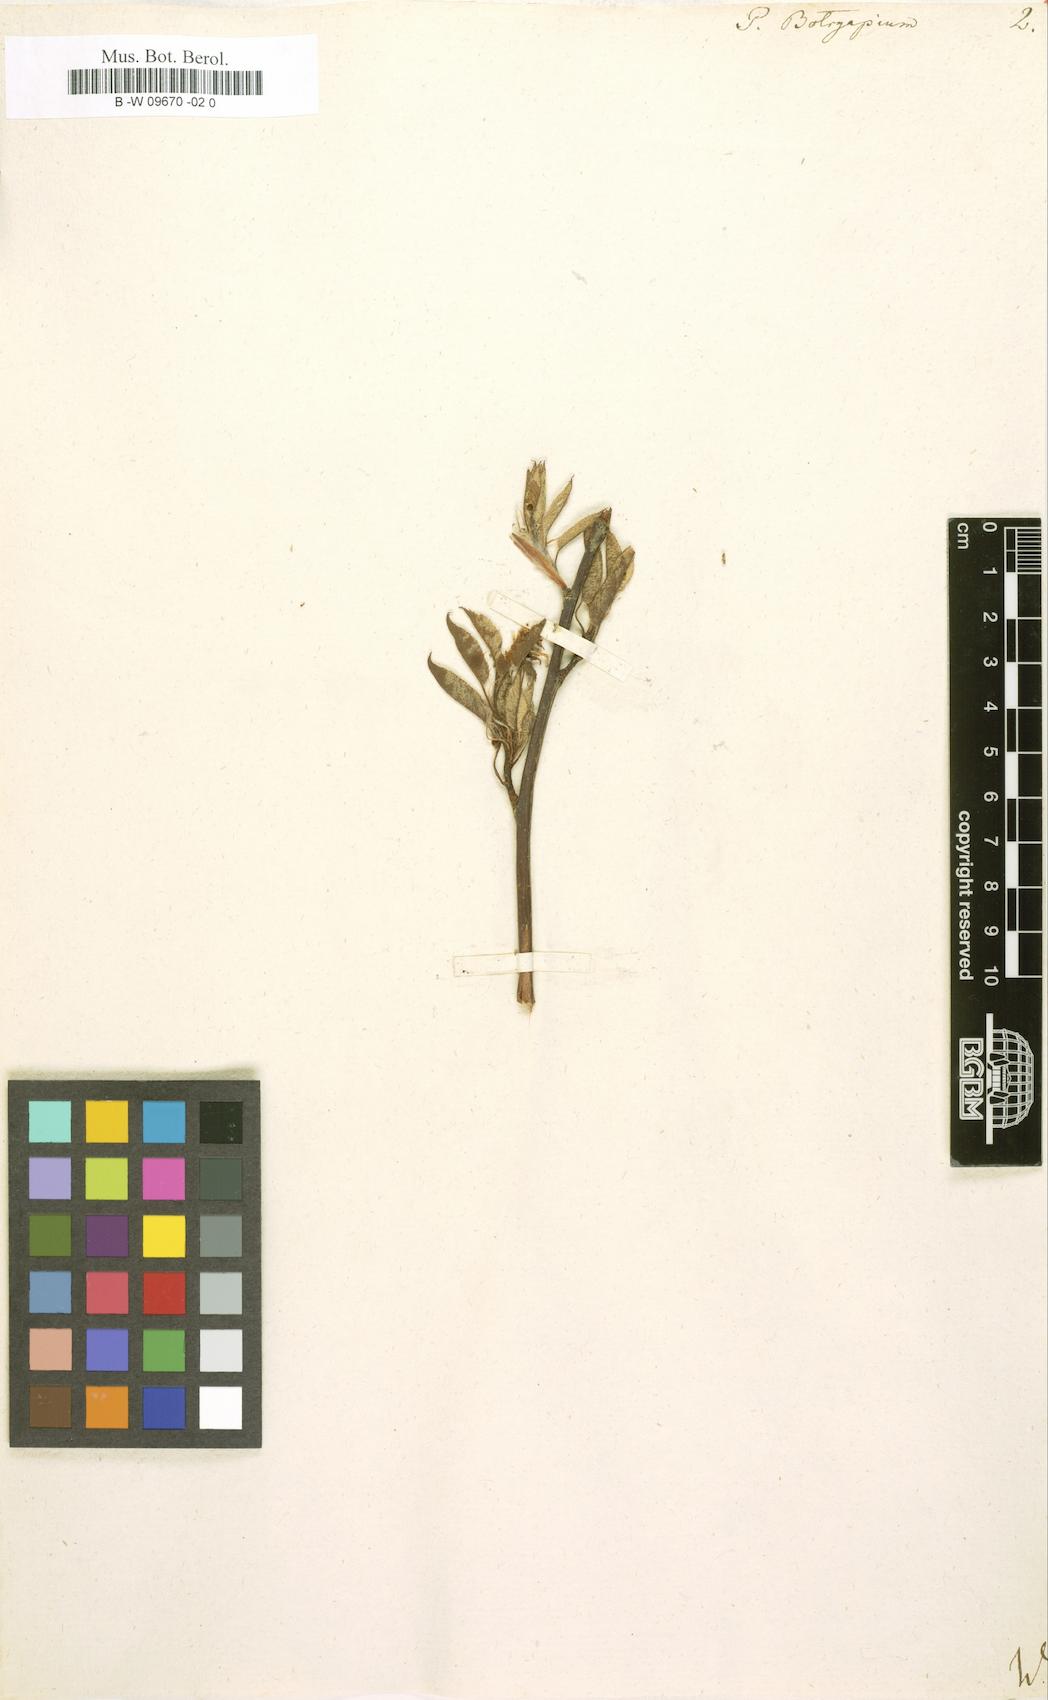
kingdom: Plantae
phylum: Tracheophyta
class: Magnoliopsida
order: Rosales
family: Rosaceae
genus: Amelanchier
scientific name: Amelanchier
